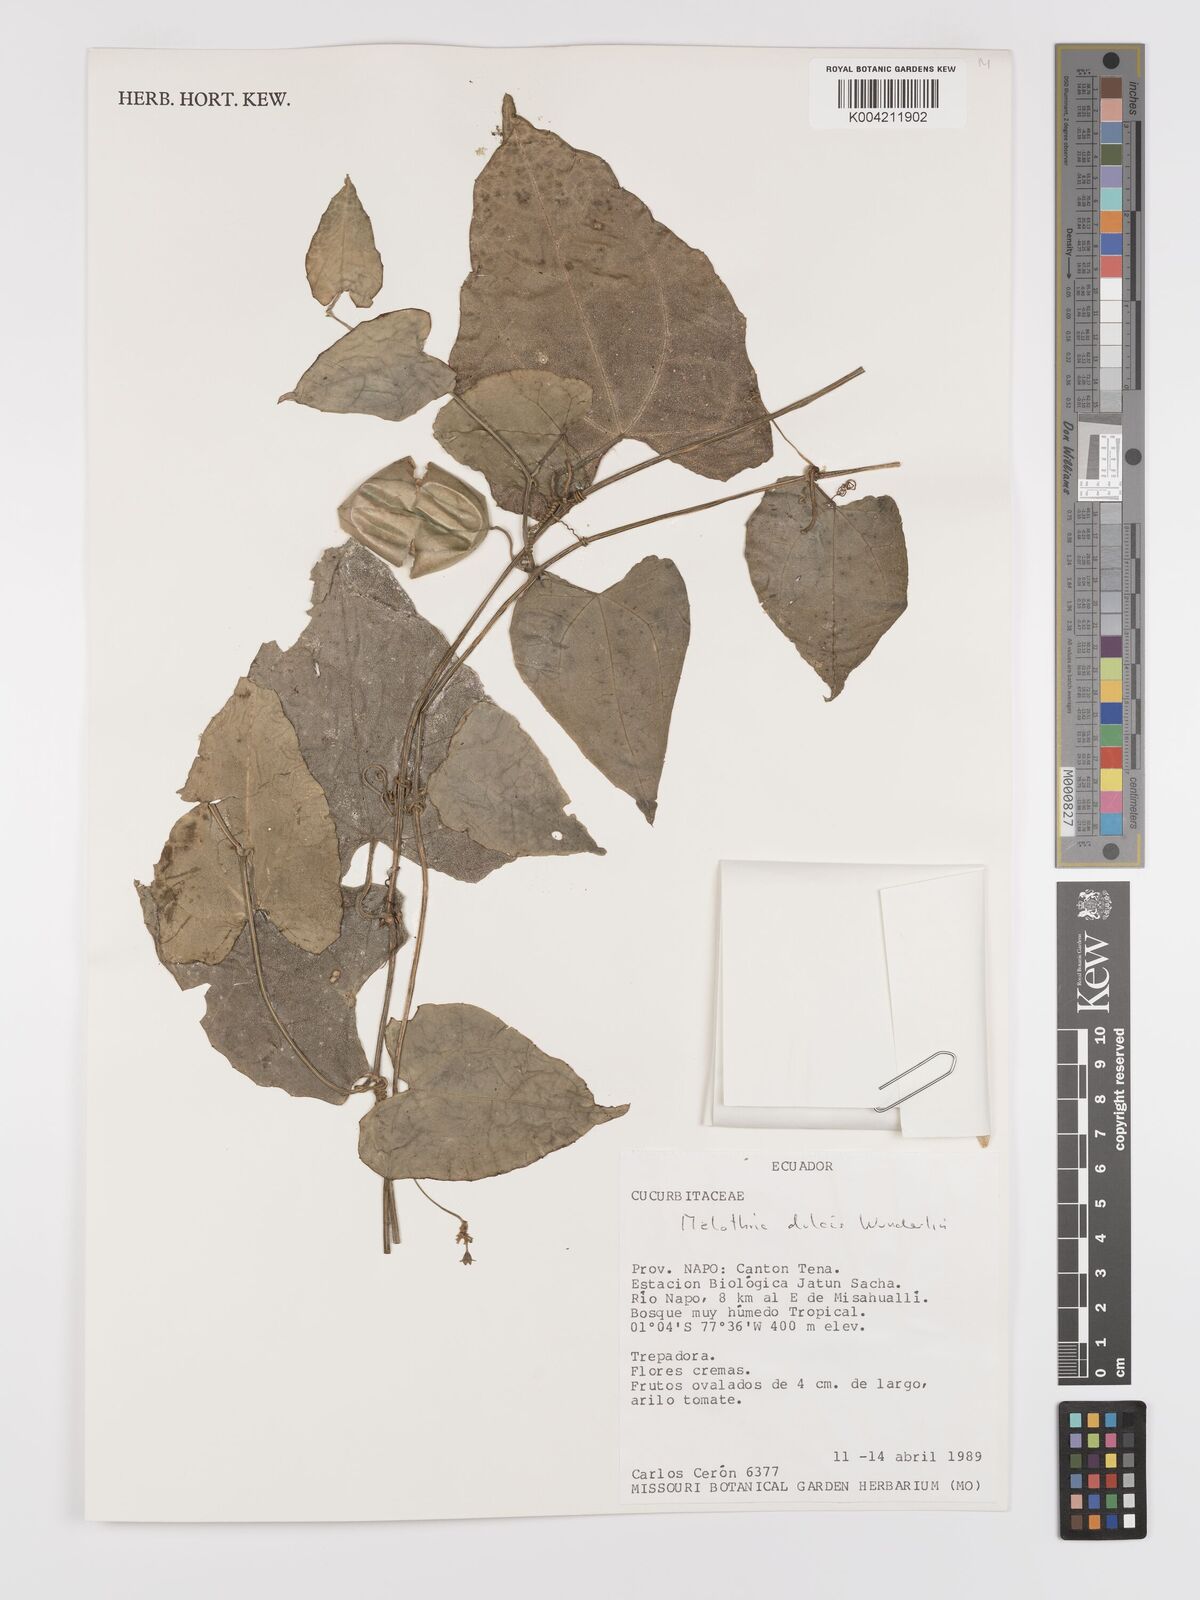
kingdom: Plantae
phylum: Tracheophyta
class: Magnoliopsida
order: Cucurbitales
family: Cucurbitaceae
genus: Melothria
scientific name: Melothria dulcis
